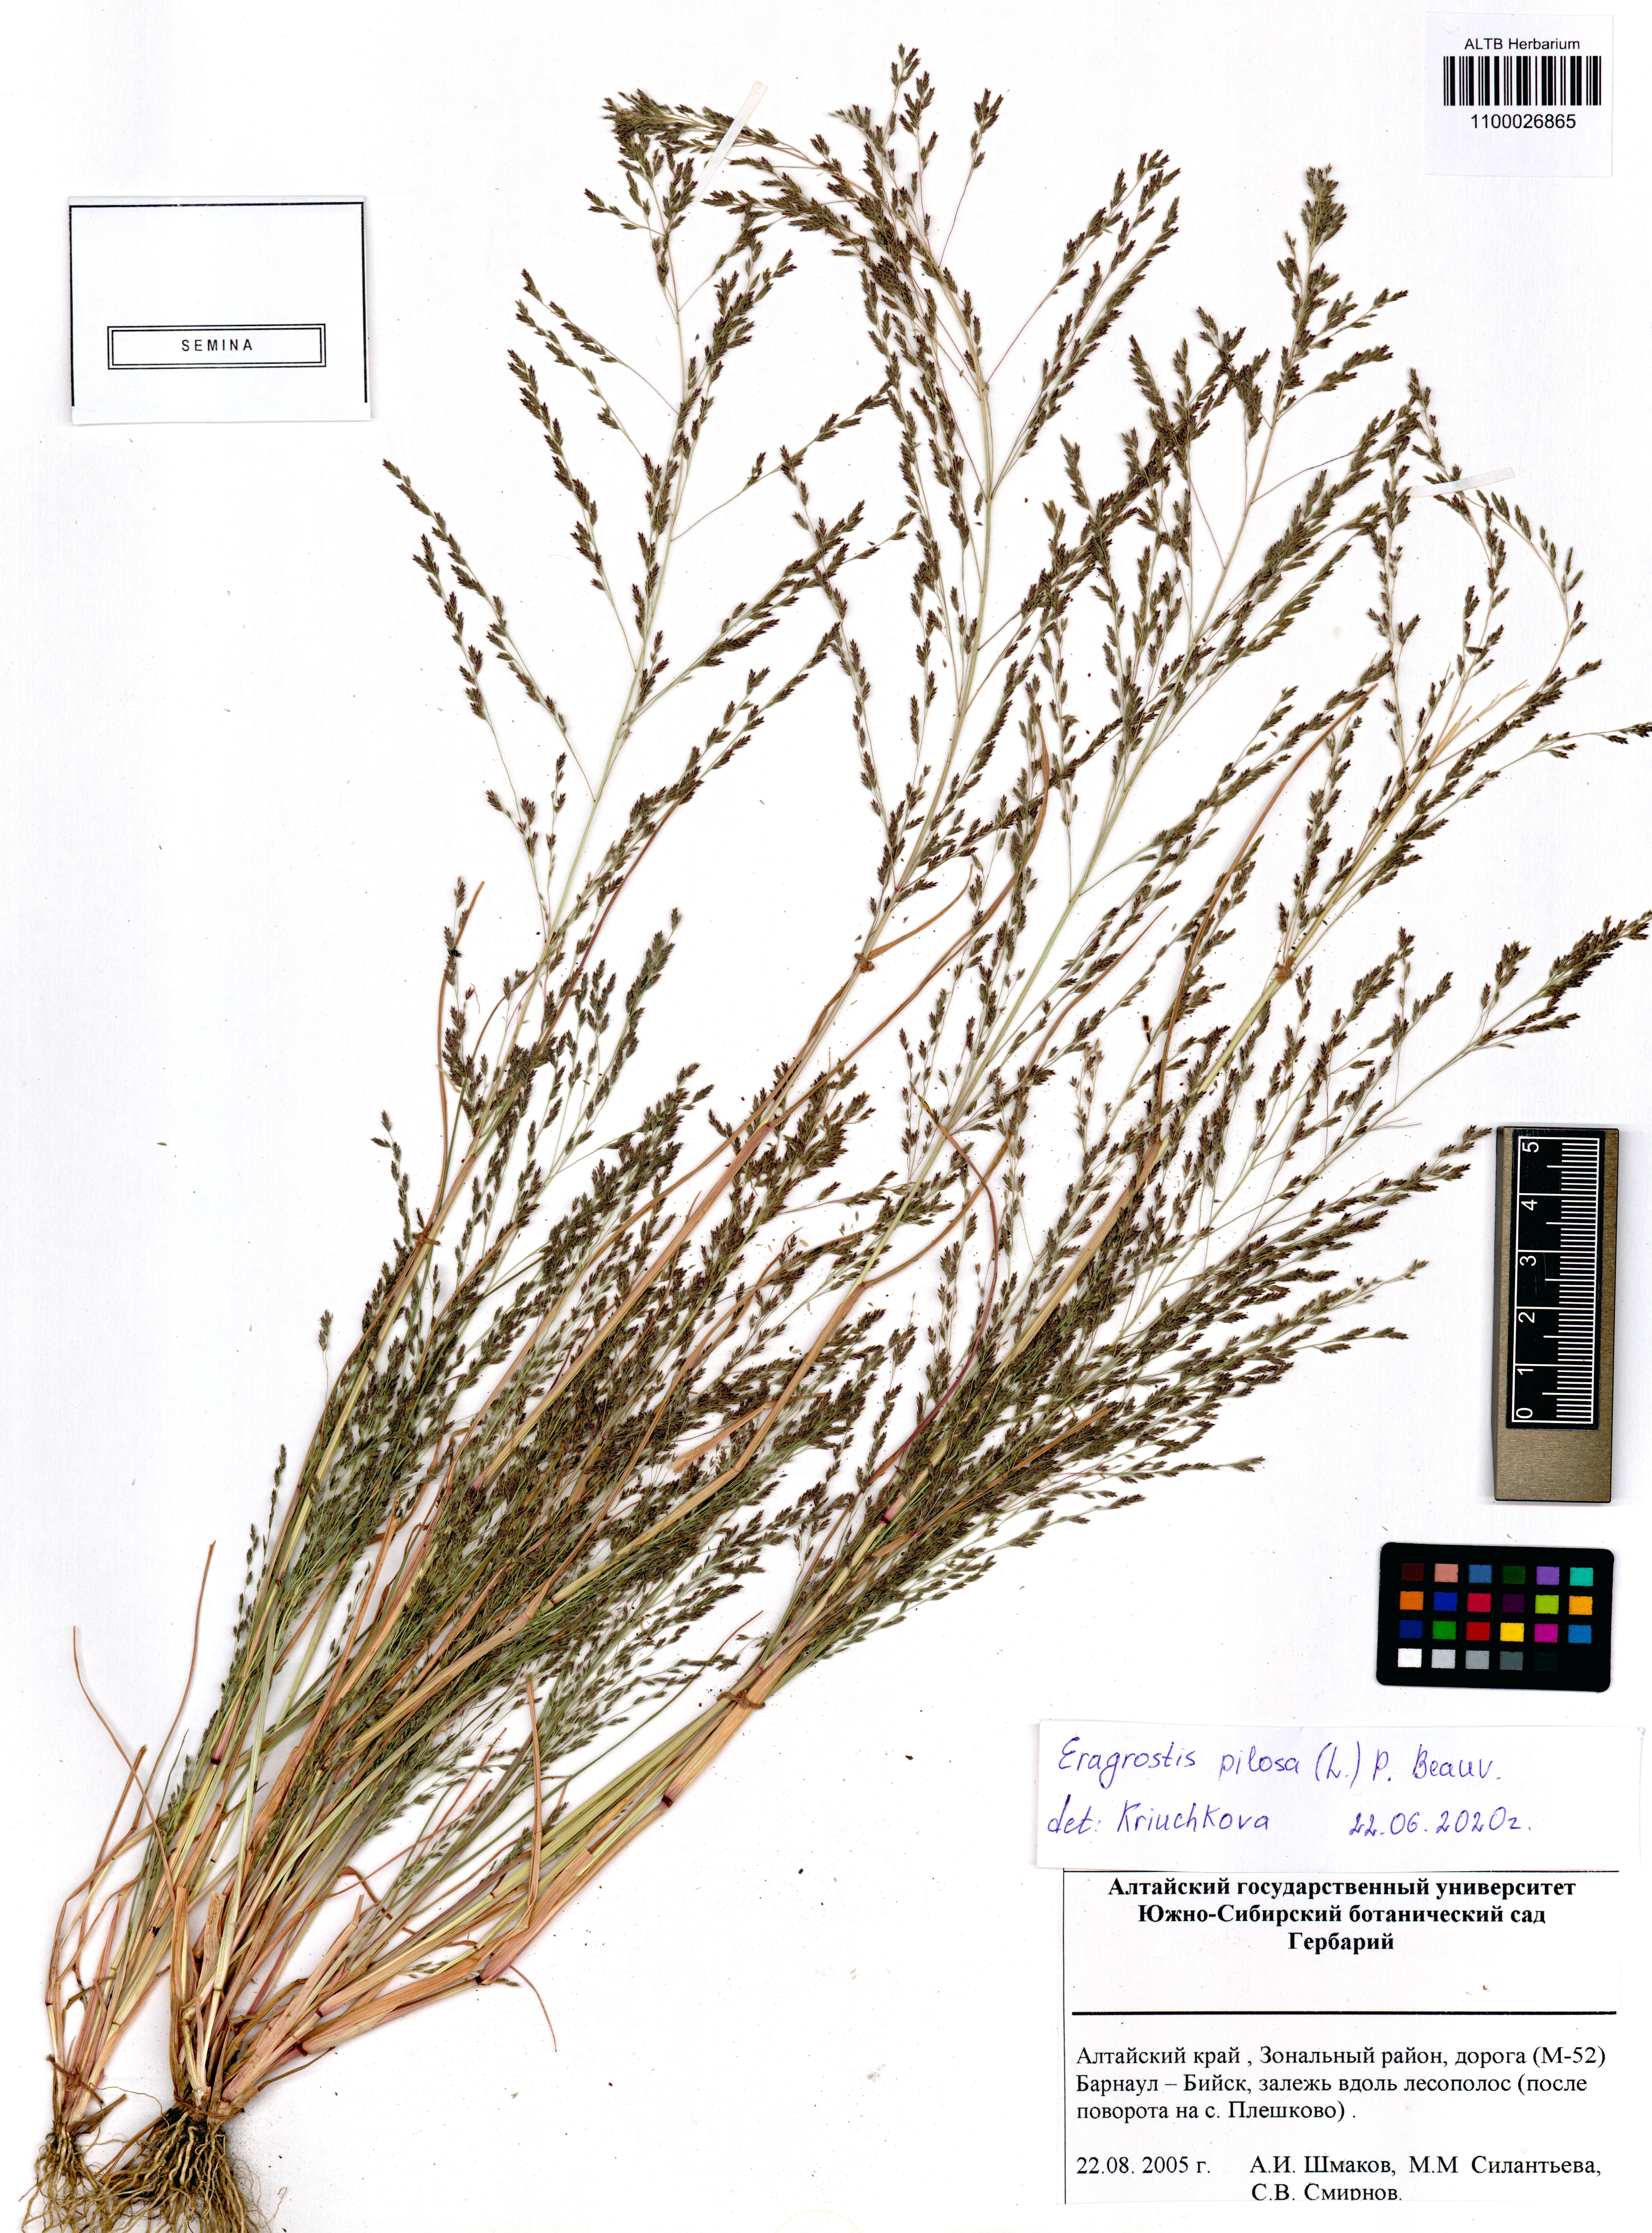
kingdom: Plantae
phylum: Tracheophyta
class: Liliopsida
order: Poales
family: Poaceae
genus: Eragrostis
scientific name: Eragrostis pilosa
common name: Indian lovegrass
